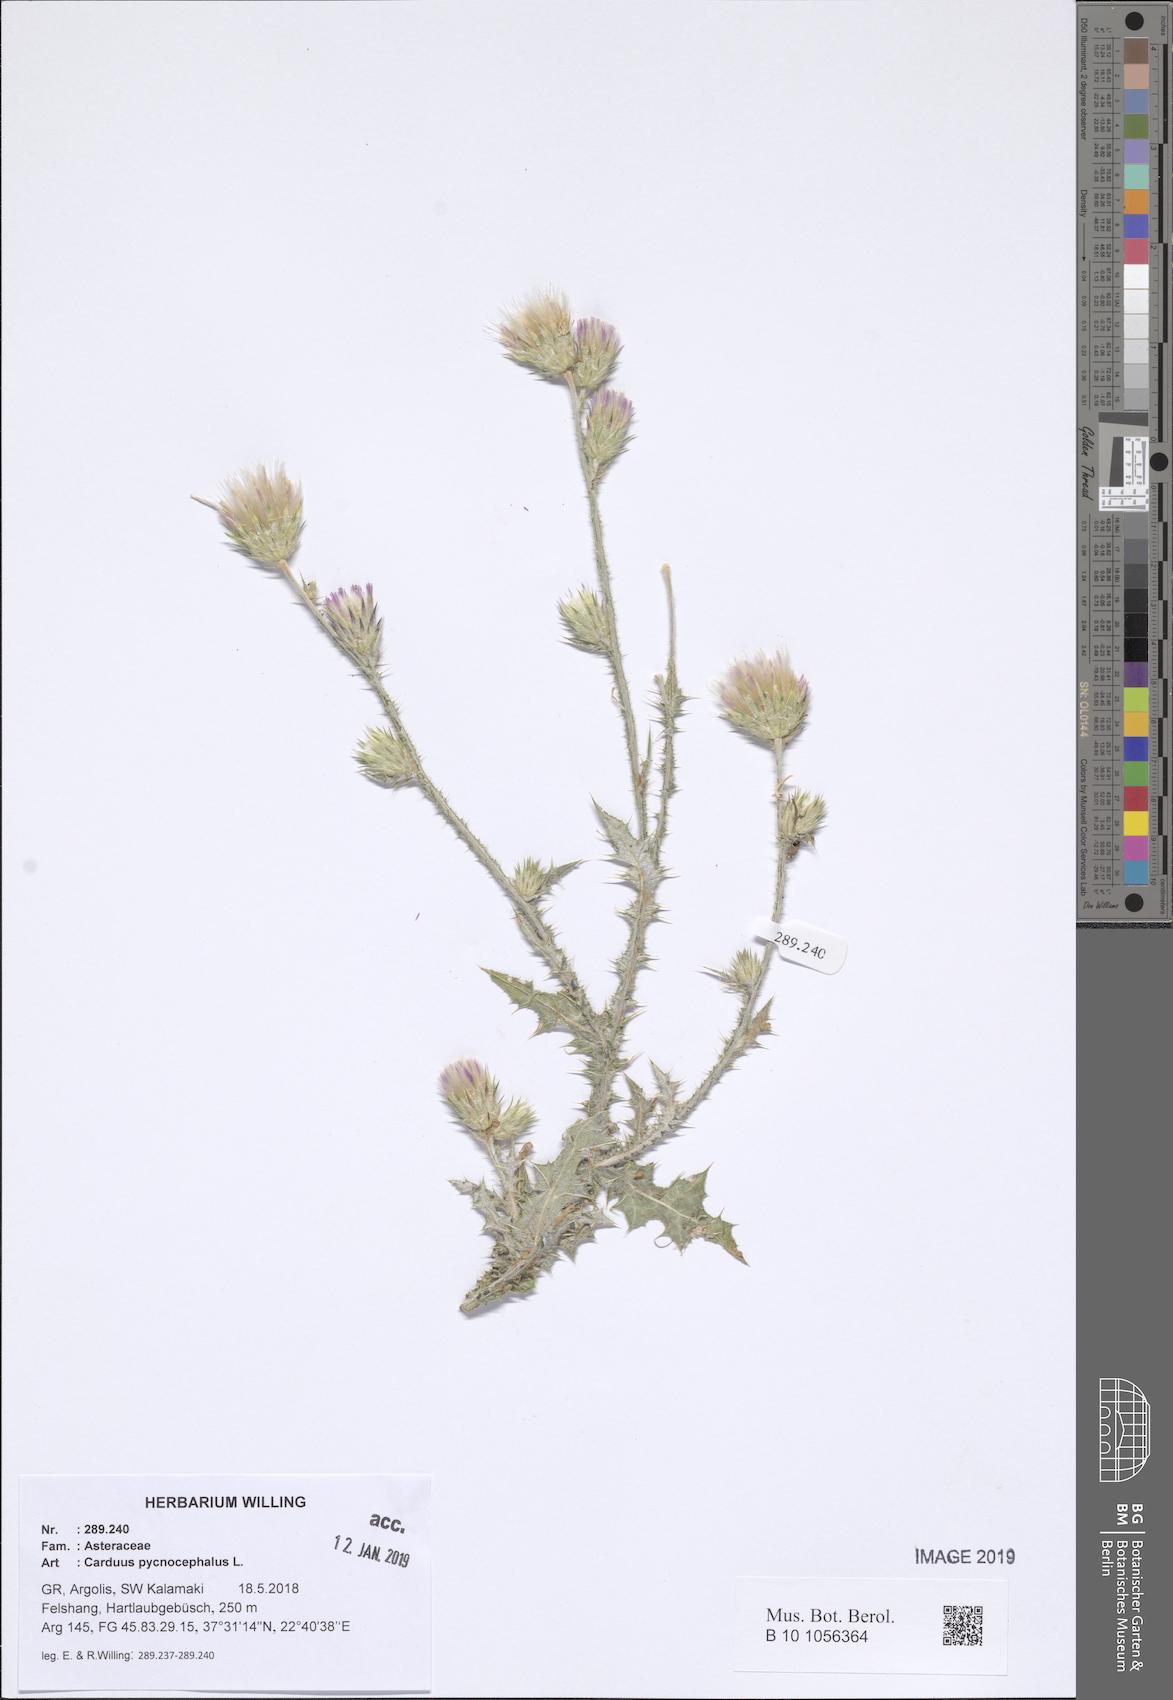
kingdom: Plantae
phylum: Tracheophyta
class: Magnoliopsida
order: Asterales
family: Asteraceae
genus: Carduus
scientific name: Carduus pycnocephalus
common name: Plymouth thistle
